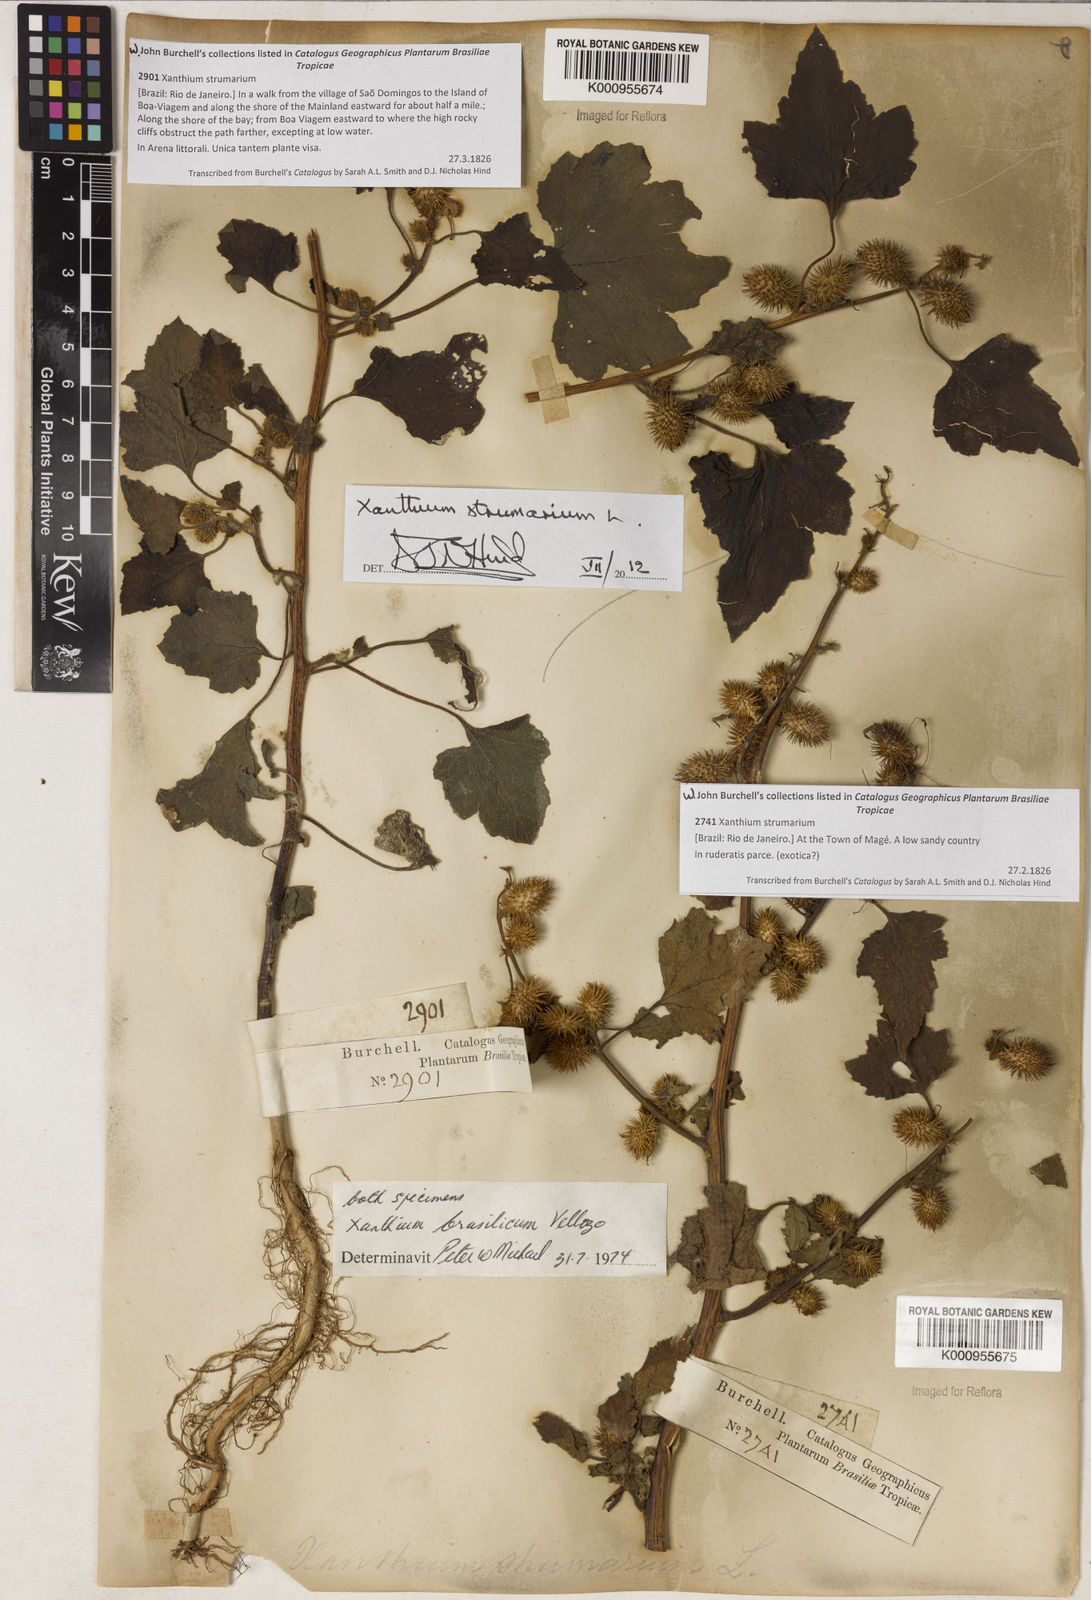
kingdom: Plantae
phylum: Tracheophyta
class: Magnoliopsida
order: Asterales
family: Asteraceae
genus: Xanthium
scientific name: Xanthium strumarium
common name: Rough cocklebur
